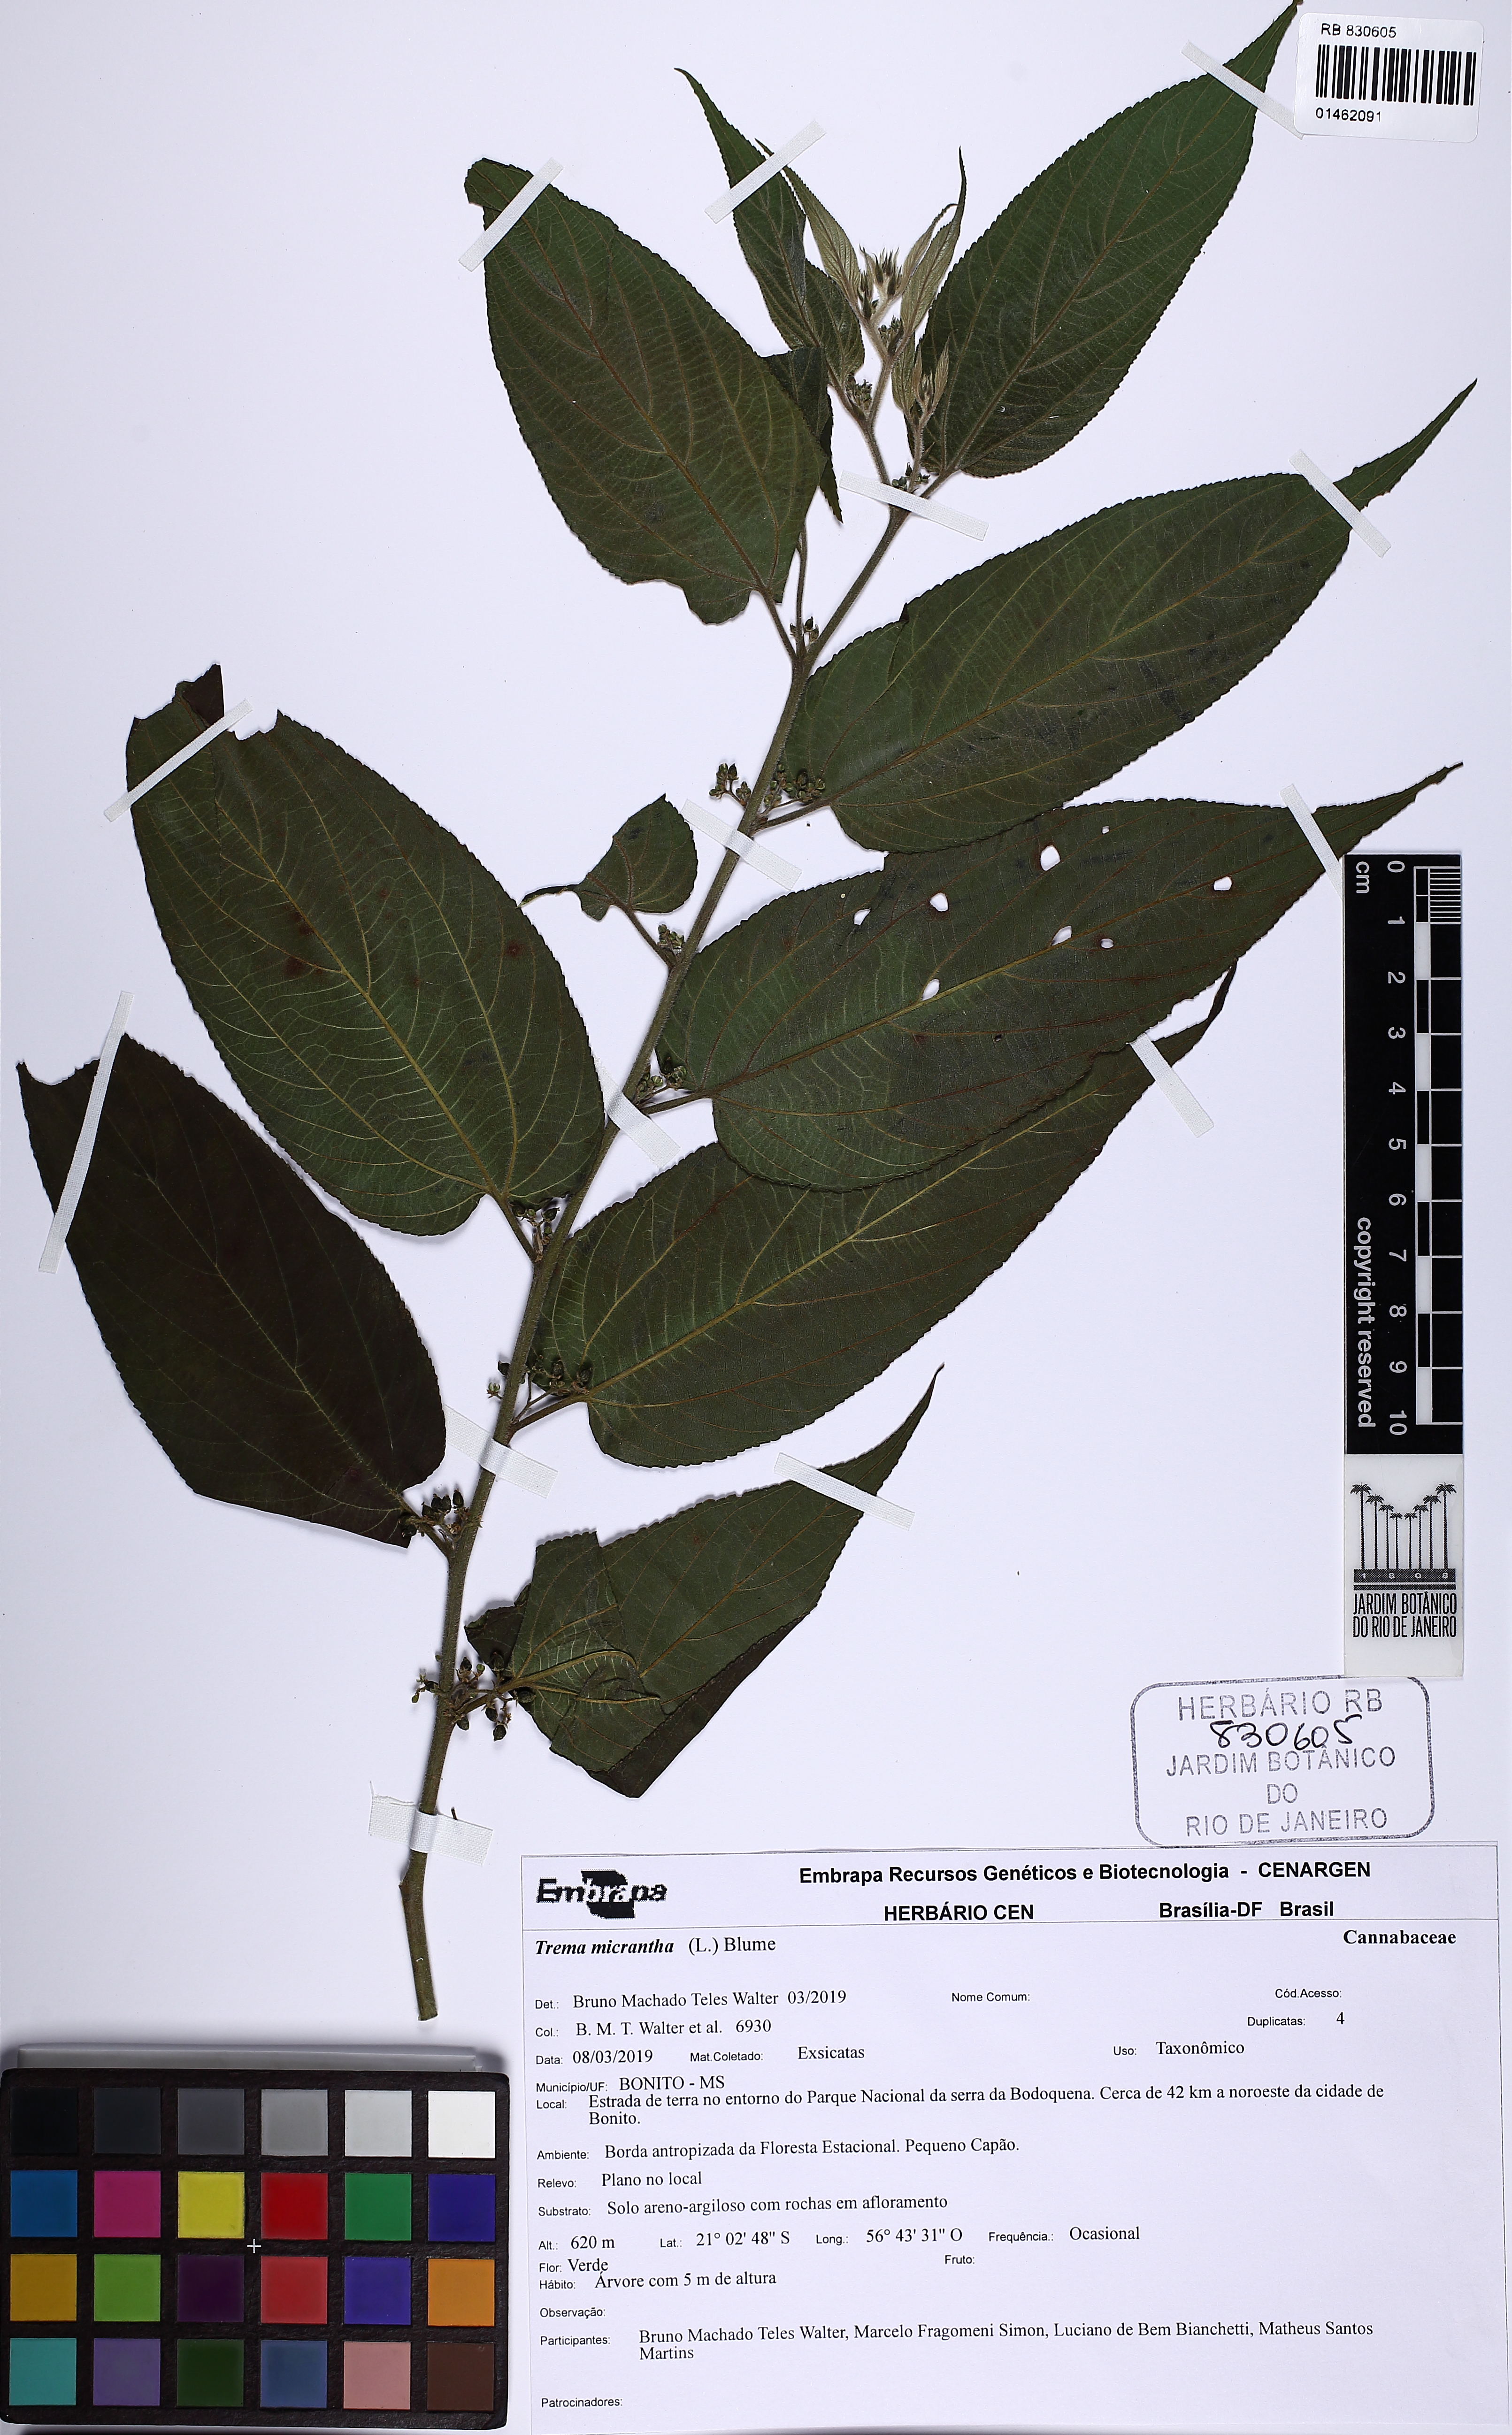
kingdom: Plantae
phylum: Tracheophyta
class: Magnoliopsida
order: Rosales
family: Cannabaceae
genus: Trema
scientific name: Trema micranthum
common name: Jamaican nettletree
